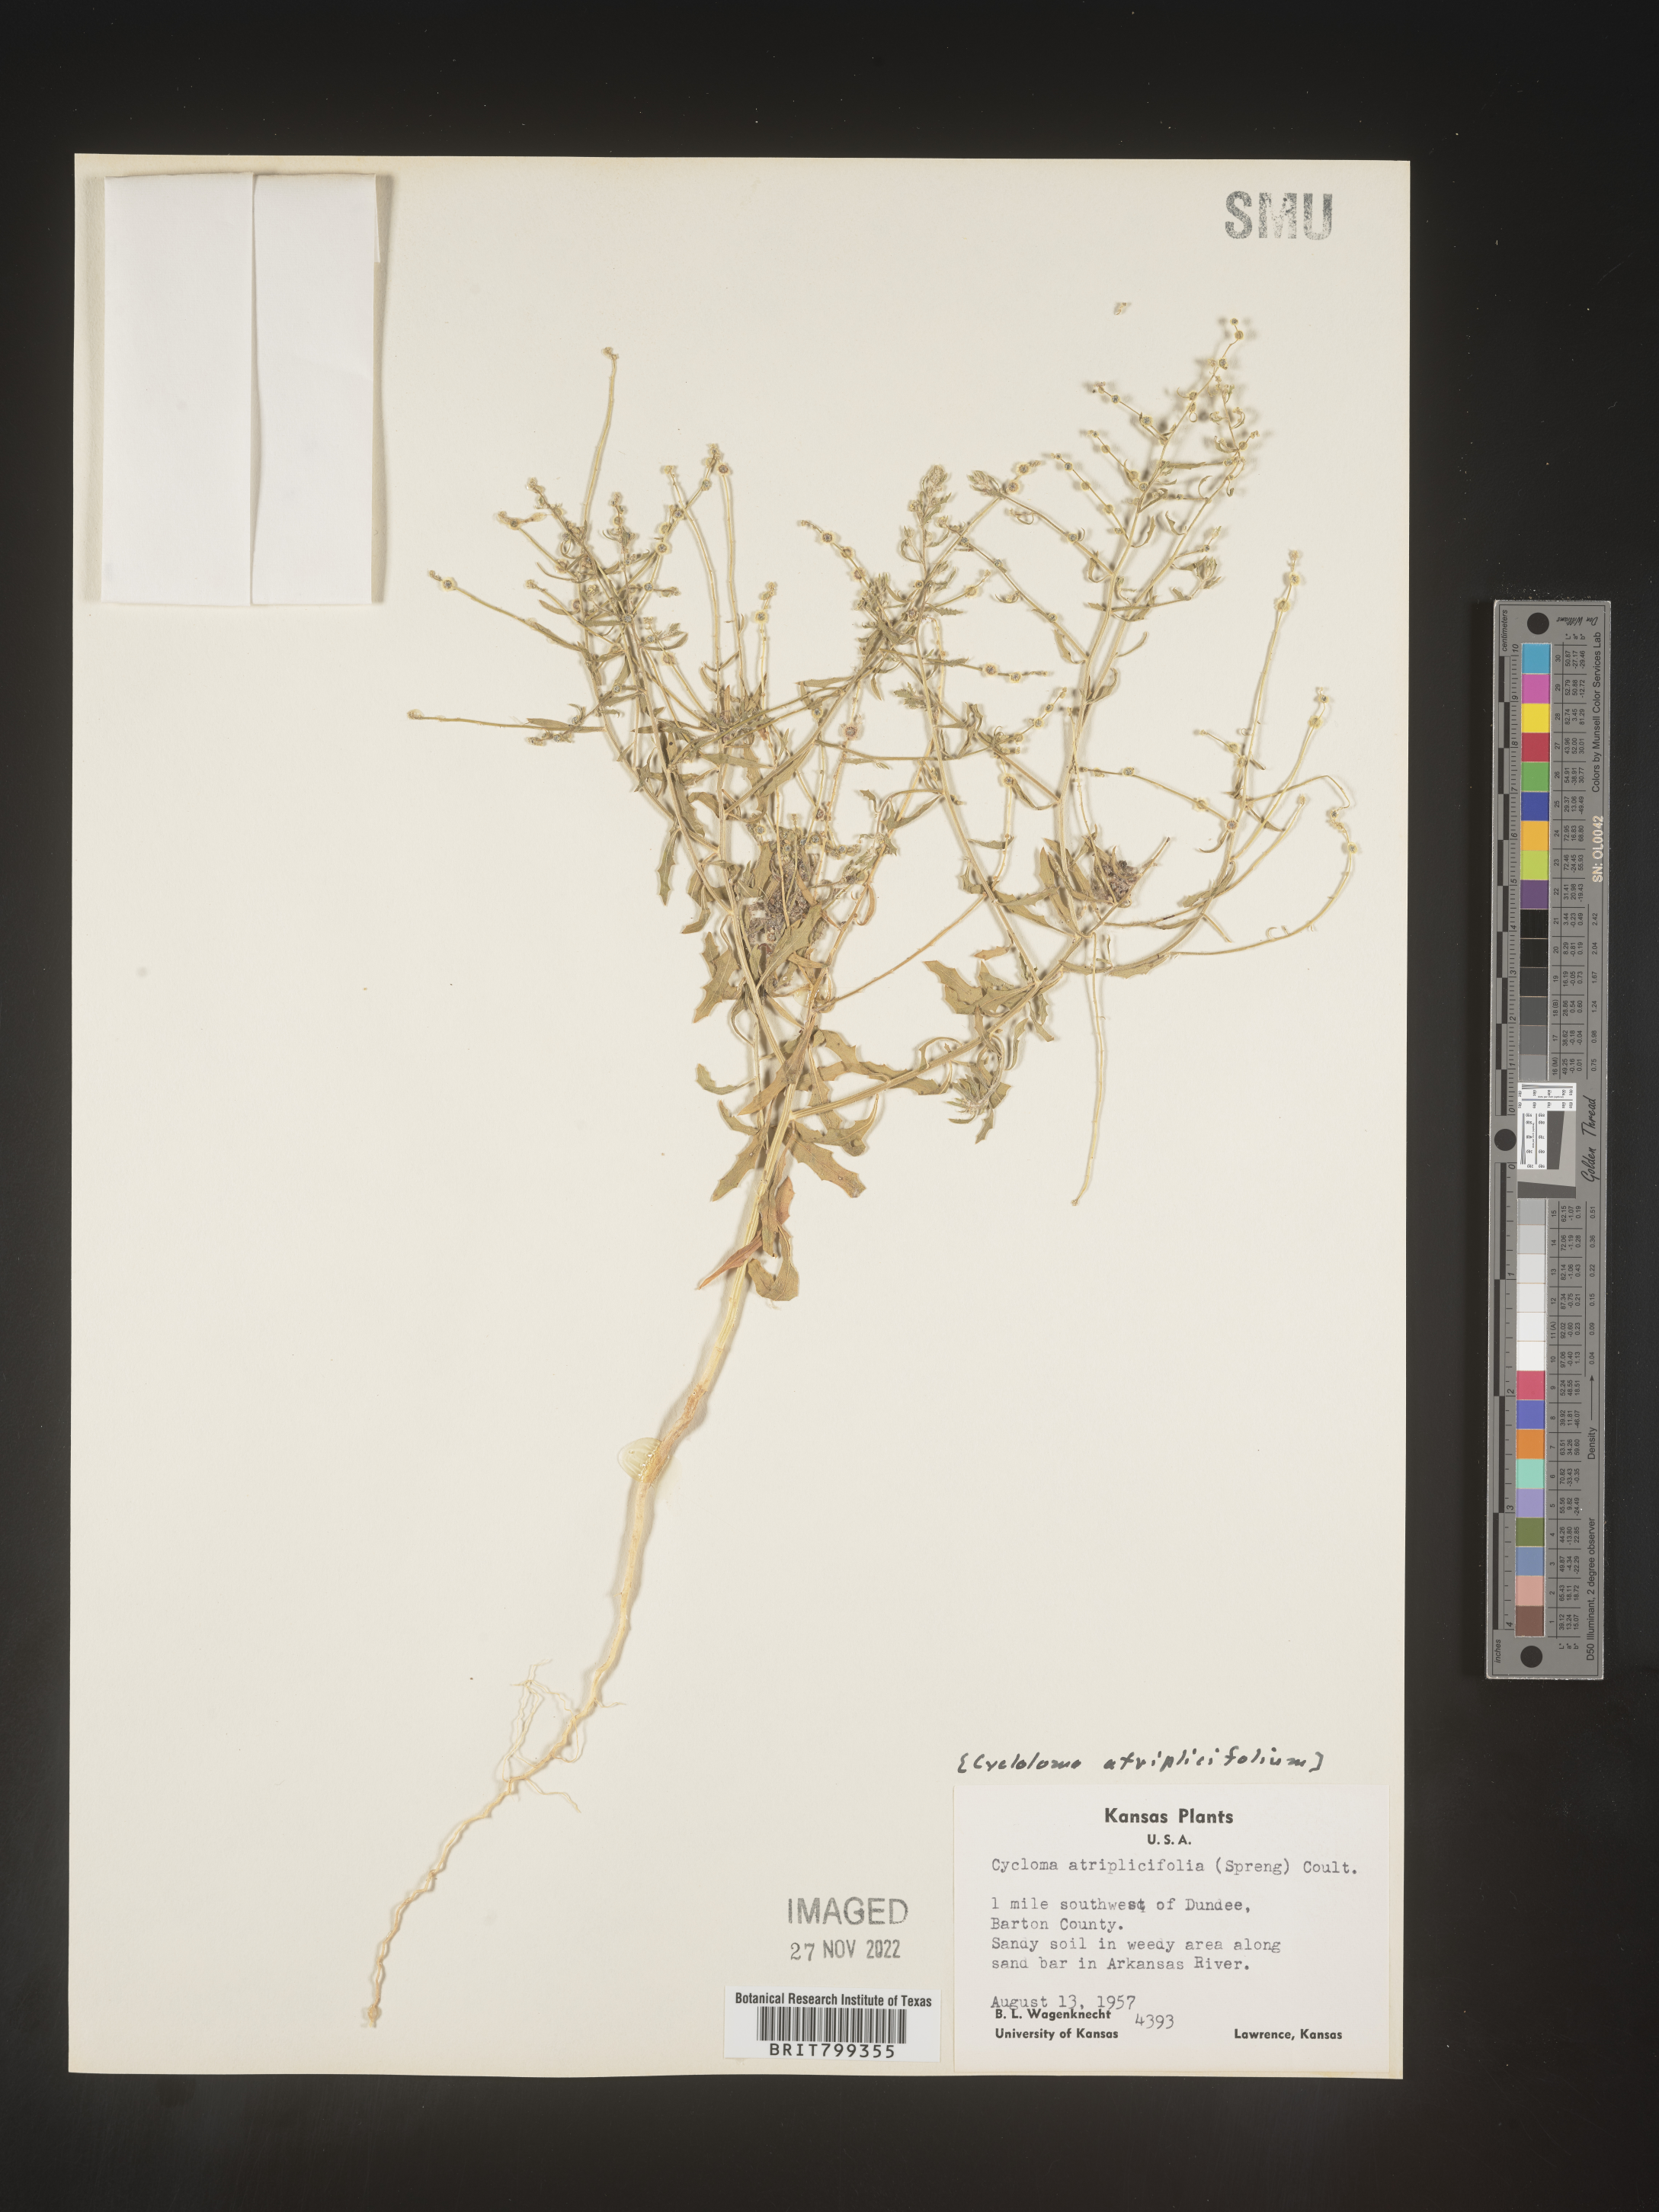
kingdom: Plantae
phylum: Tracheophyta
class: Magnoliopsida
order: Caryophyllales
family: Amaranthaceae
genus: Dysphania
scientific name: Dysphania atriplicifolia
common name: Plains tumbleweed
